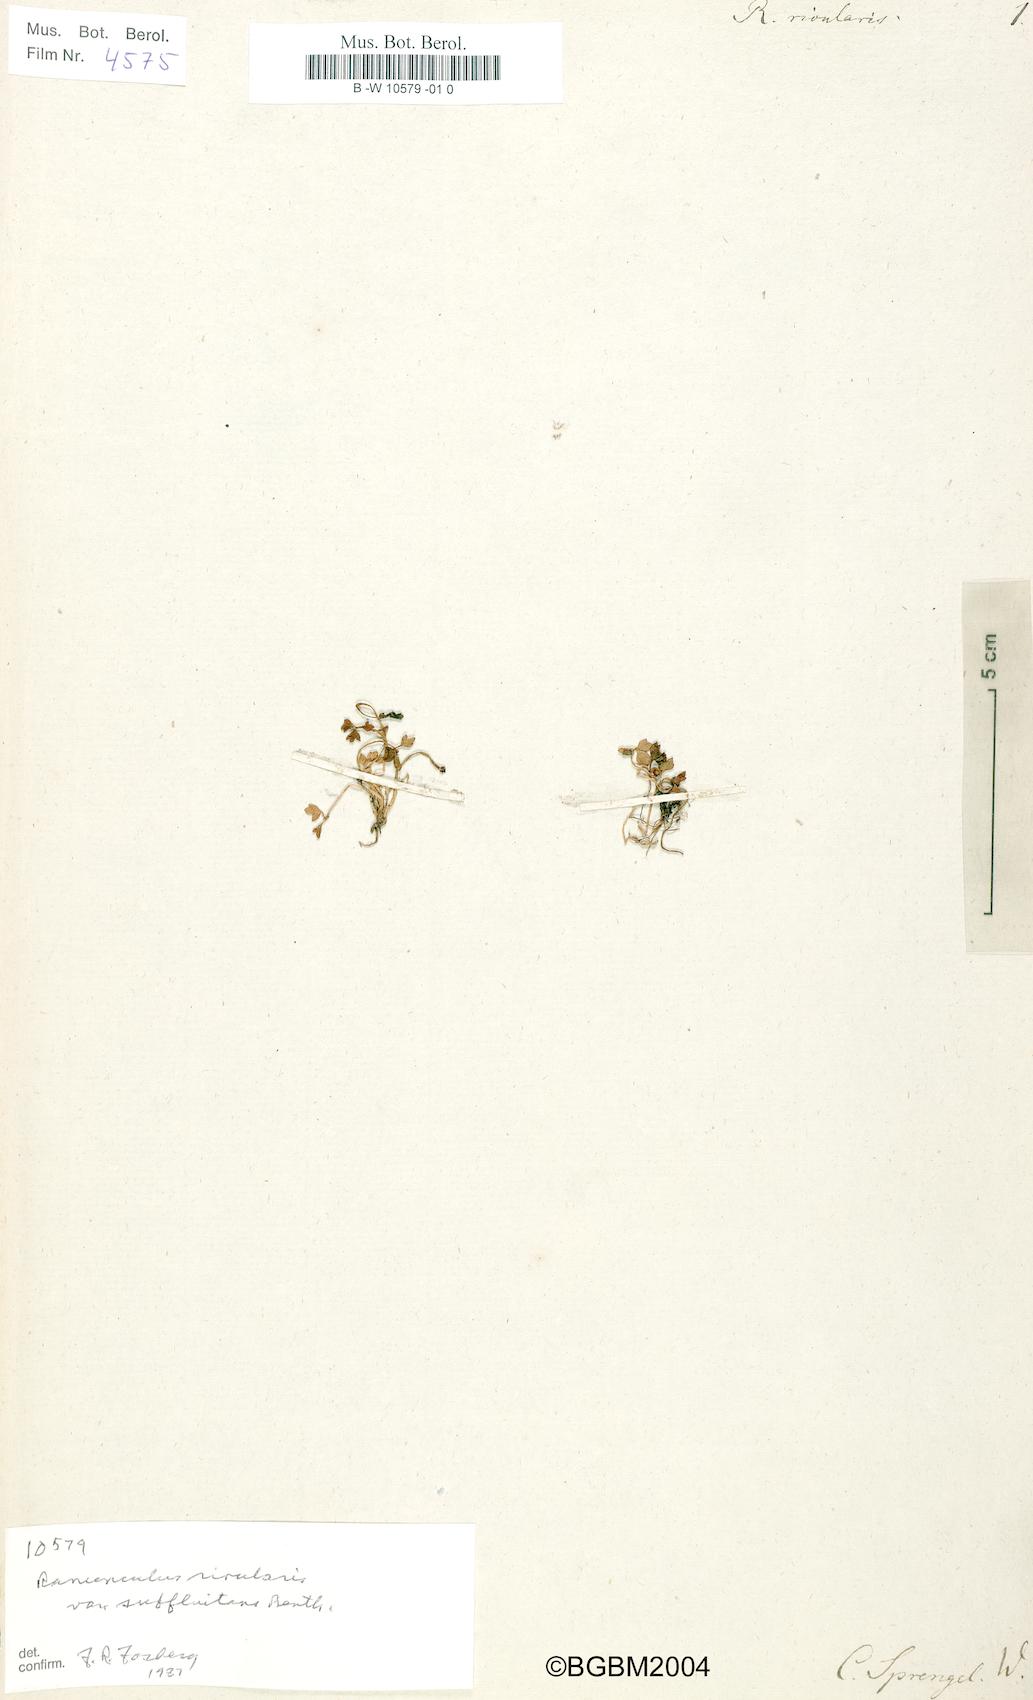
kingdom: Plantae
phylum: Tracheophyta
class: Magnoliopsida
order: Ranunculales
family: Ranunculaceae
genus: Ranunculus
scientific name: Ranunculus
